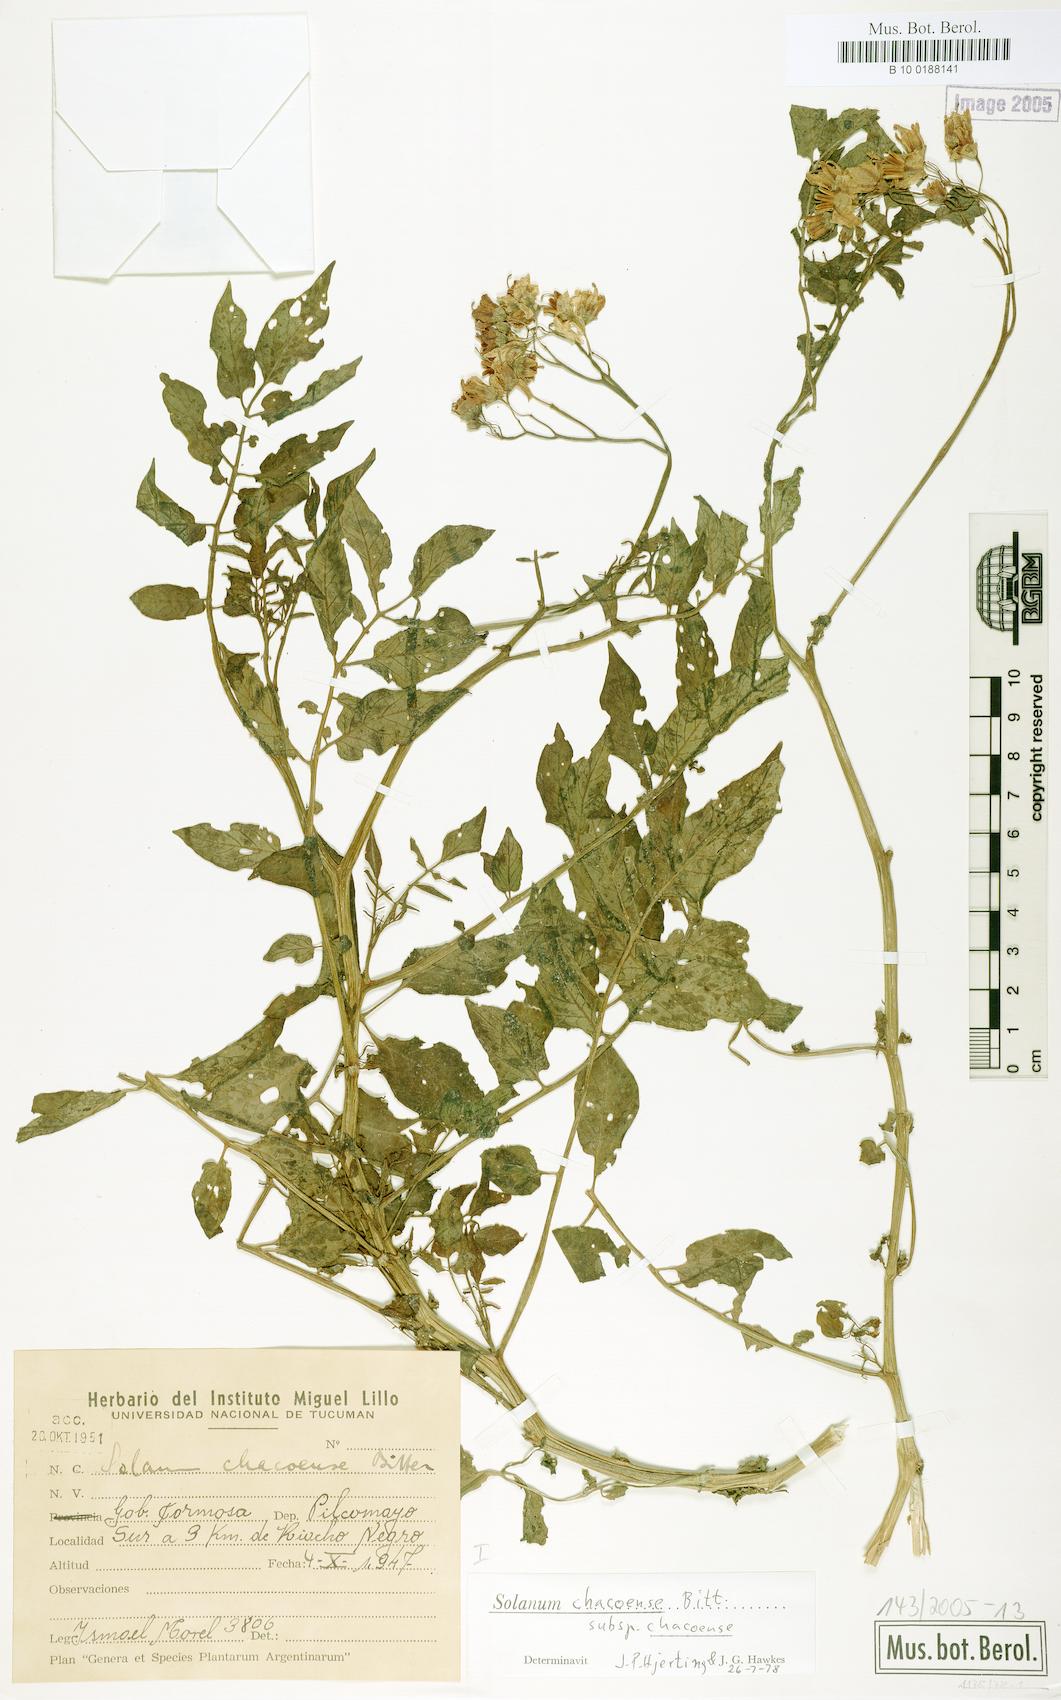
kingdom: Plantae
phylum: Tracheophyta
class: Magnoliopsida
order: Solanales
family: Solanaceae
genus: Solanum
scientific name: Solanum chacoense
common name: Chaco potato
